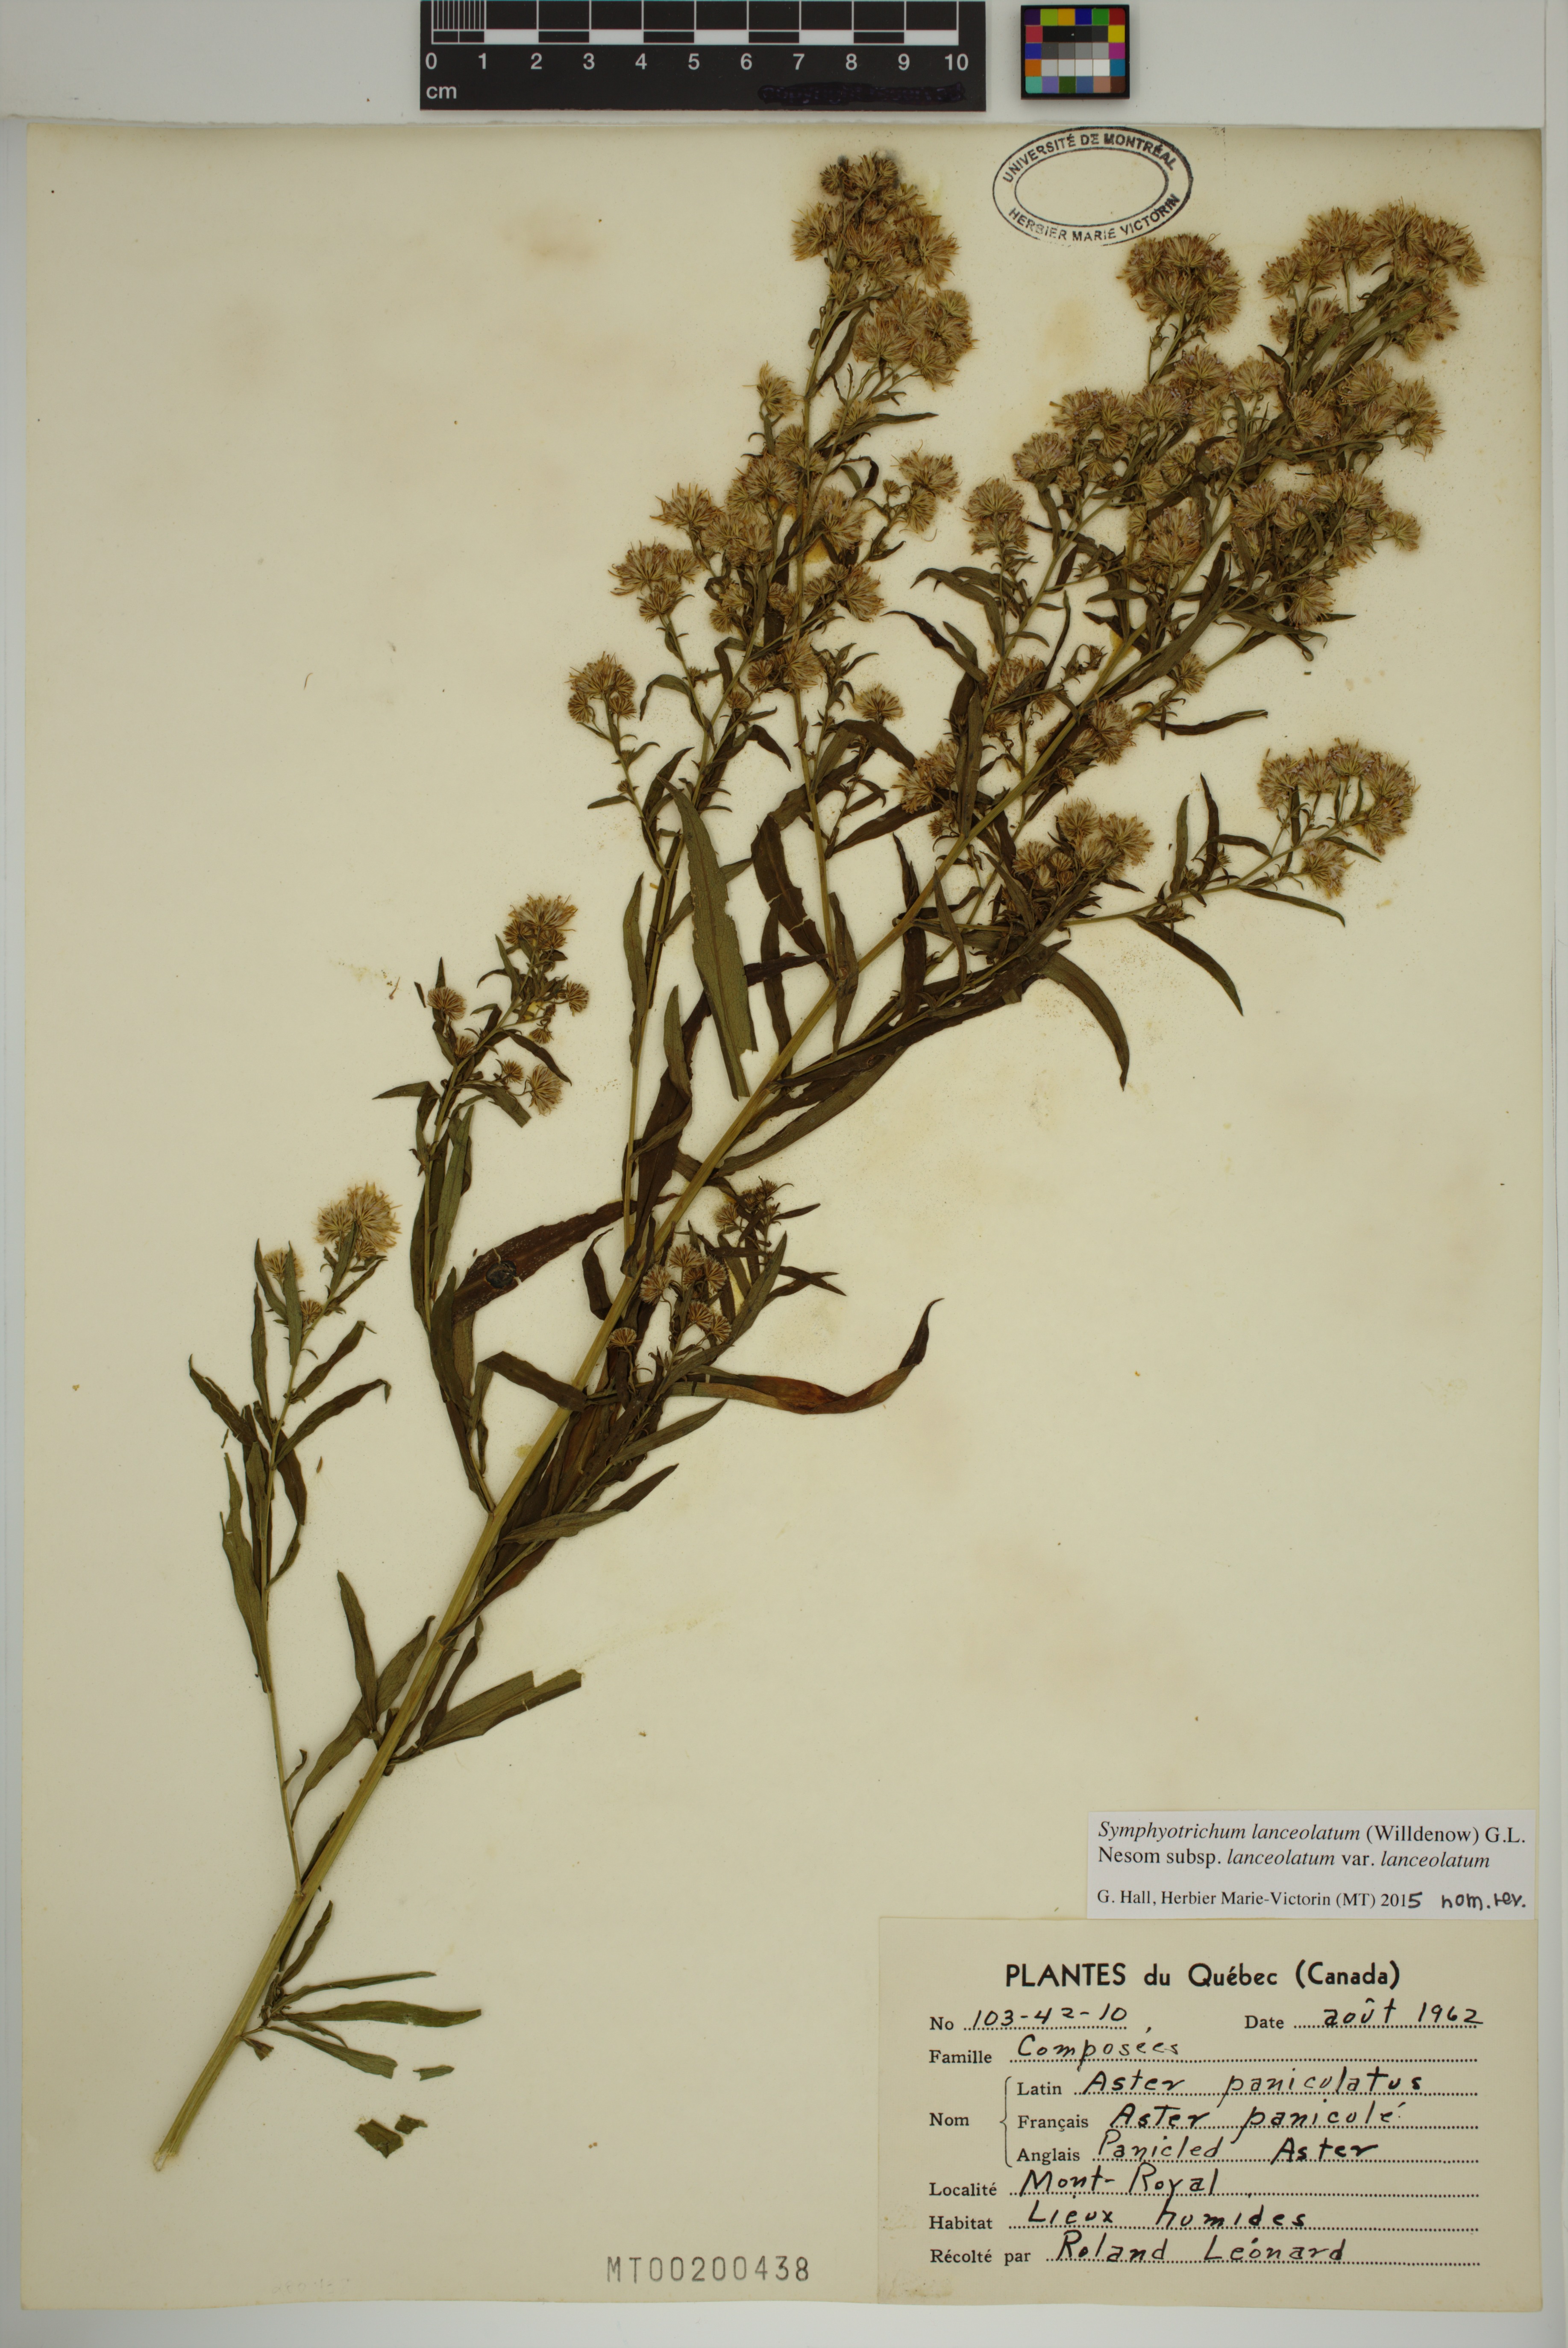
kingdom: Plantae
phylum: Tracheophyta
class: Magnoliopsida
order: Asterales
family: Asteraceae
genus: Symphyotrichum
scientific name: Symphyotrichum lanceolatum
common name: Panicled aster
